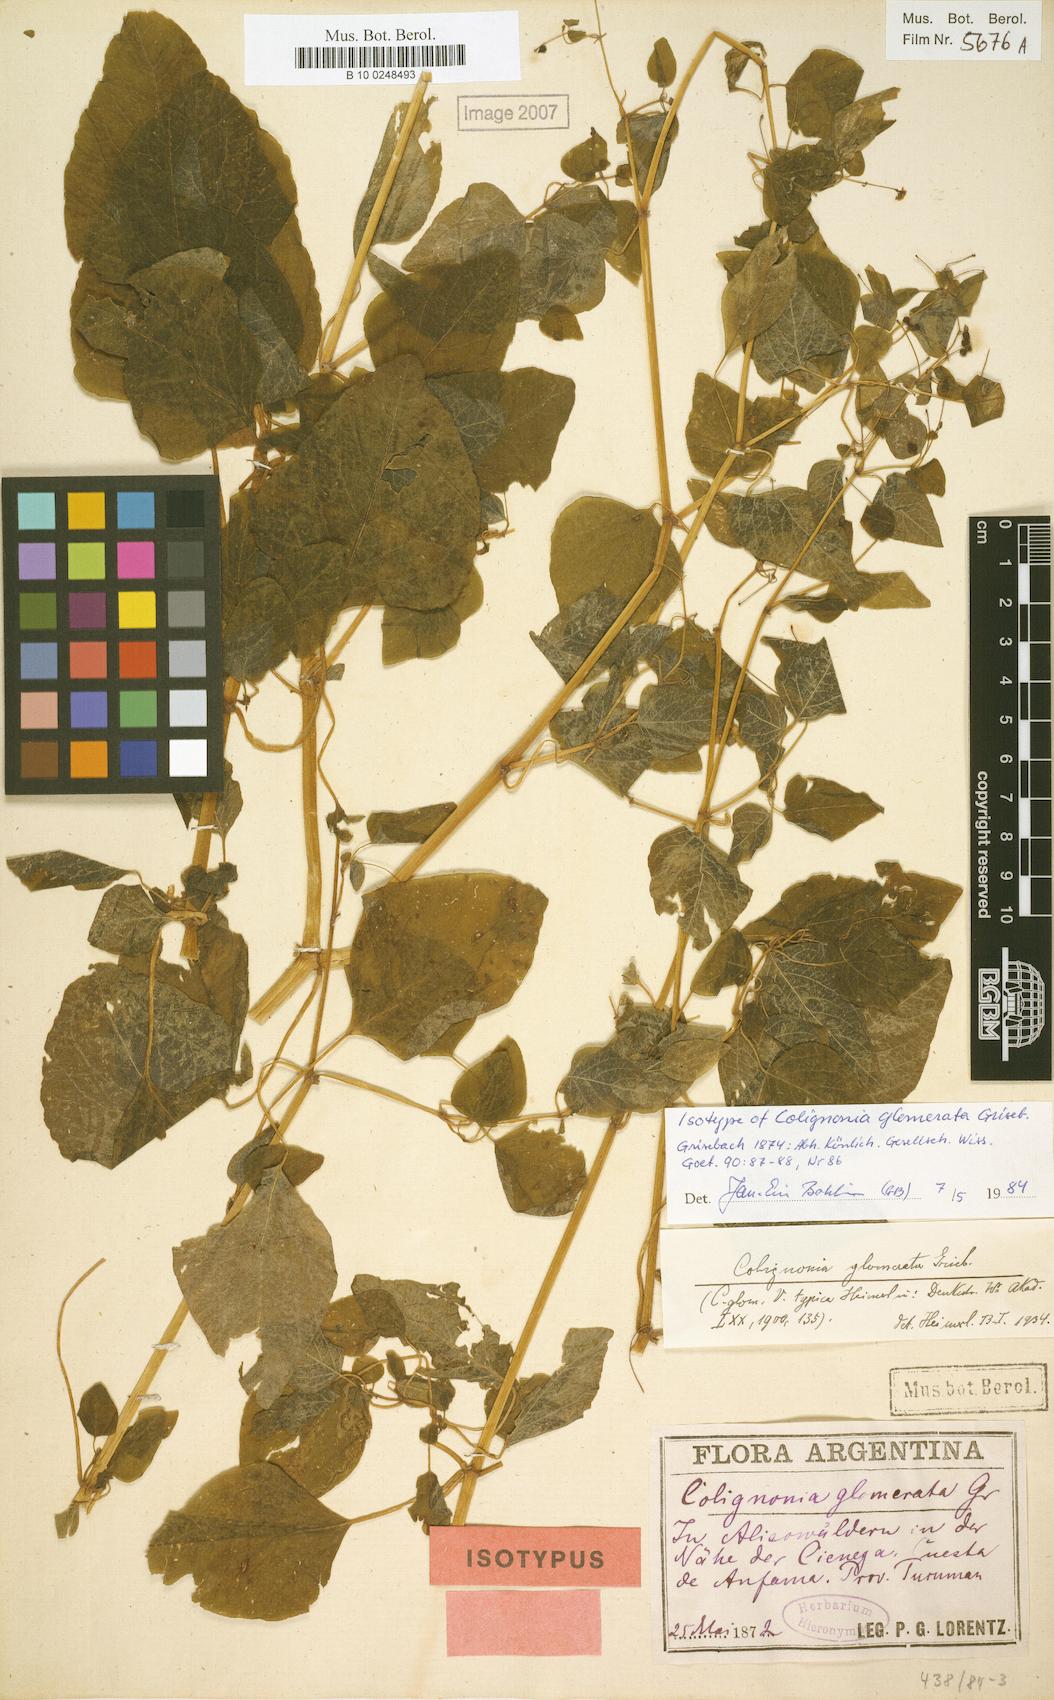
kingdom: Plantae
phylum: Tracheophyta
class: Magnoliopsida
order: Caryophyllales
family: Nyctaginaceae
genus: Colignonia
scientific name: Colignonia glomerata
